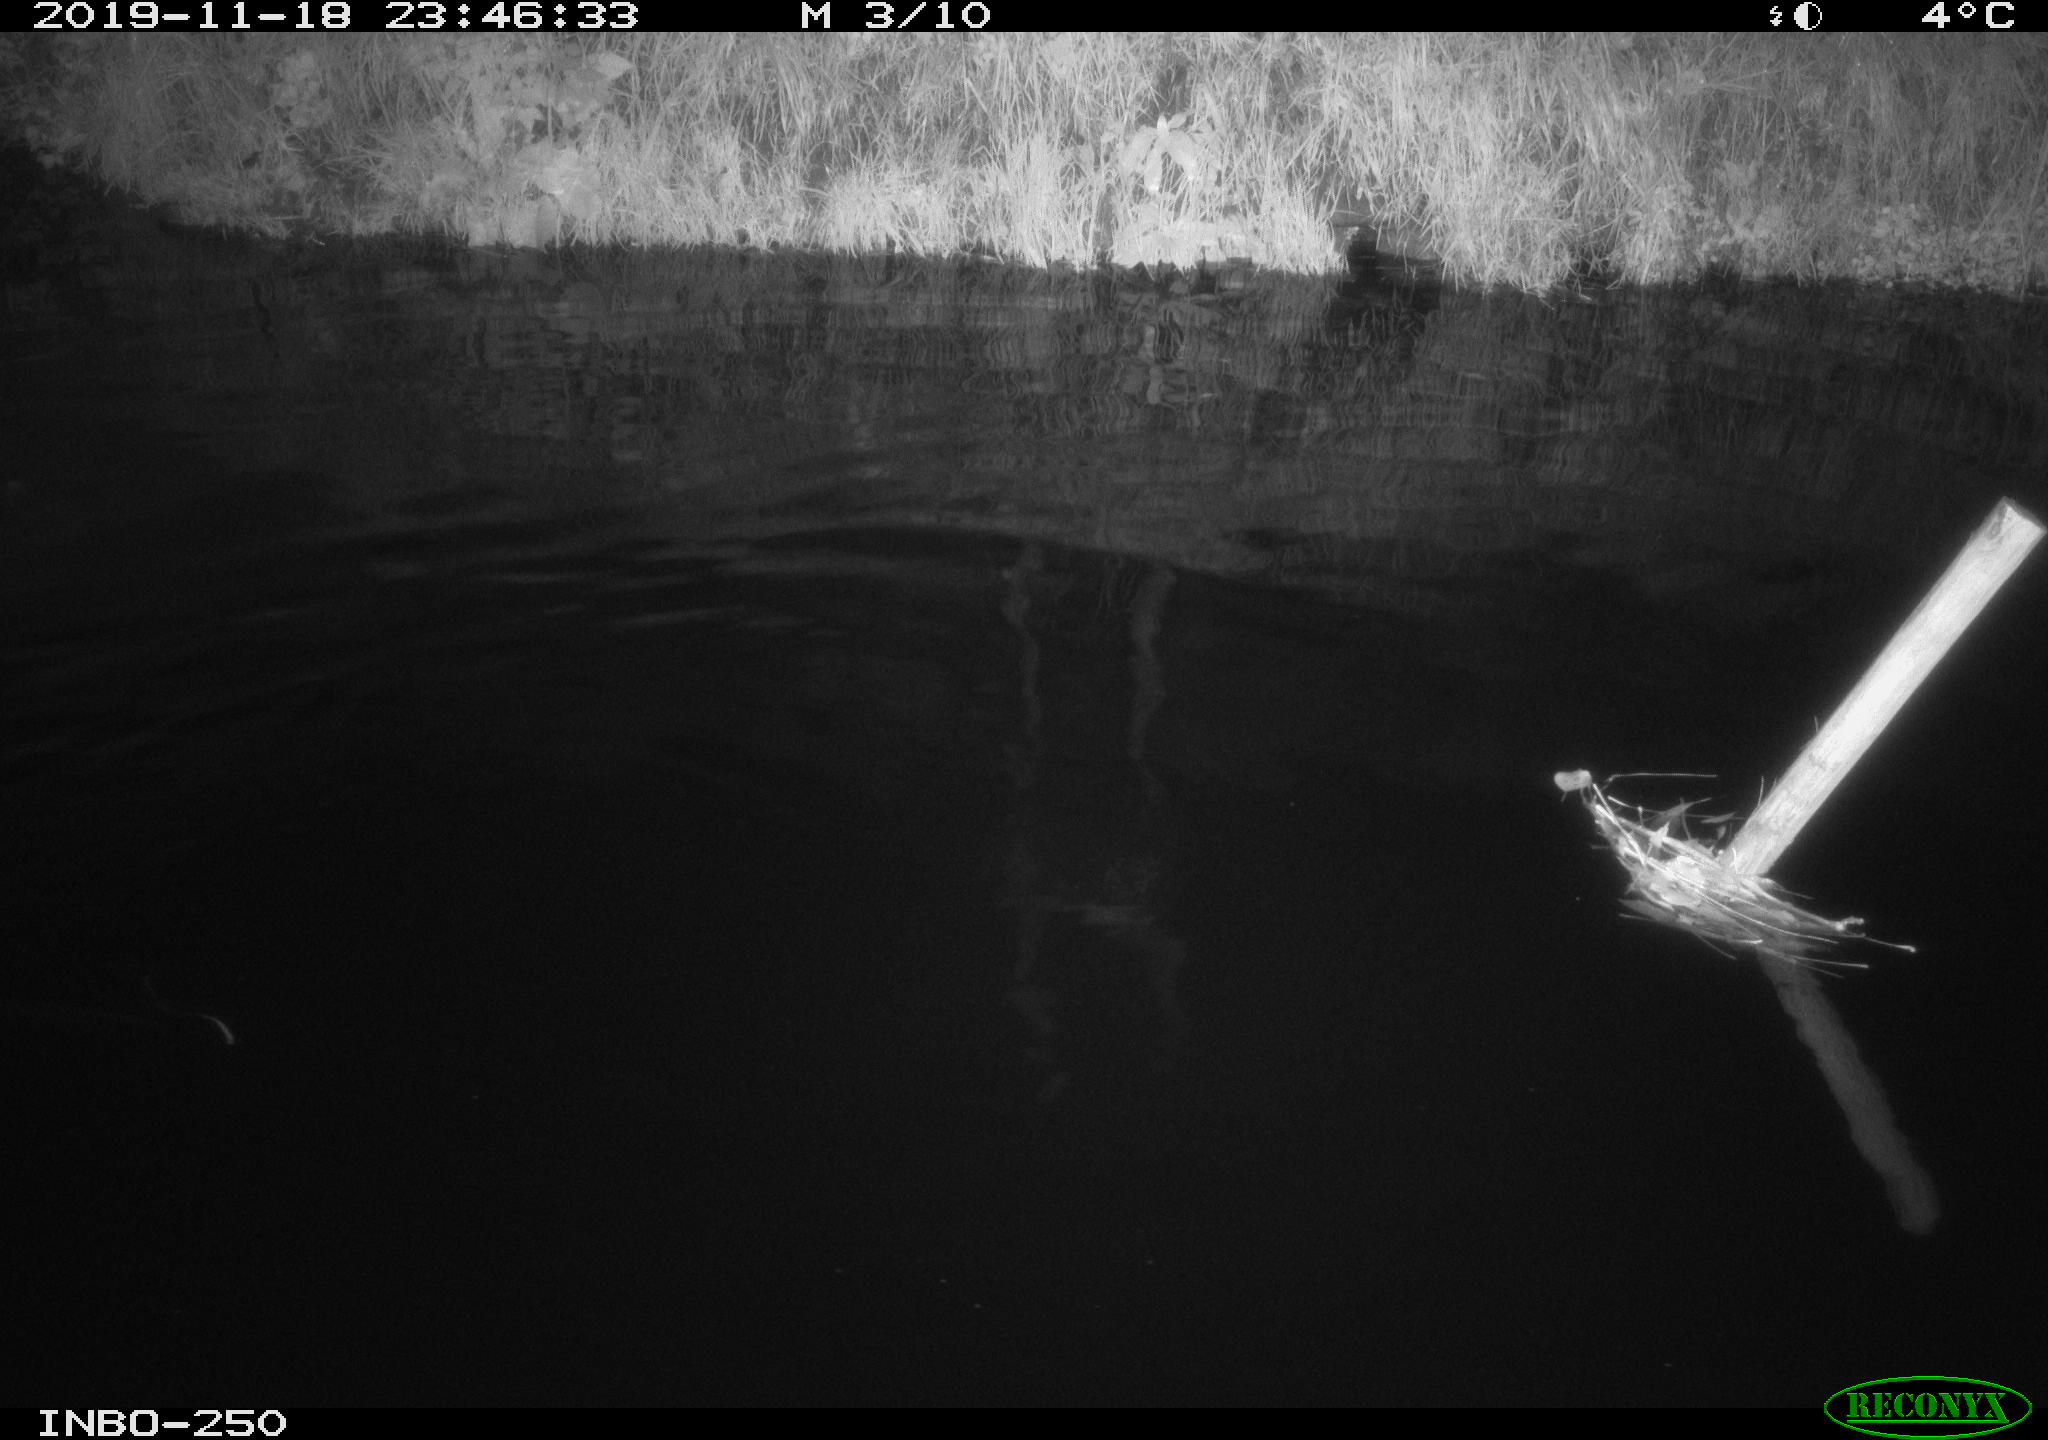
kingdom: Animalia
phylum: Chordata
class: Aves
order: Anseriformes
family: Anatidae
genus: Anas
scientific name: Anas platyrhynchos
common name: Mallard
